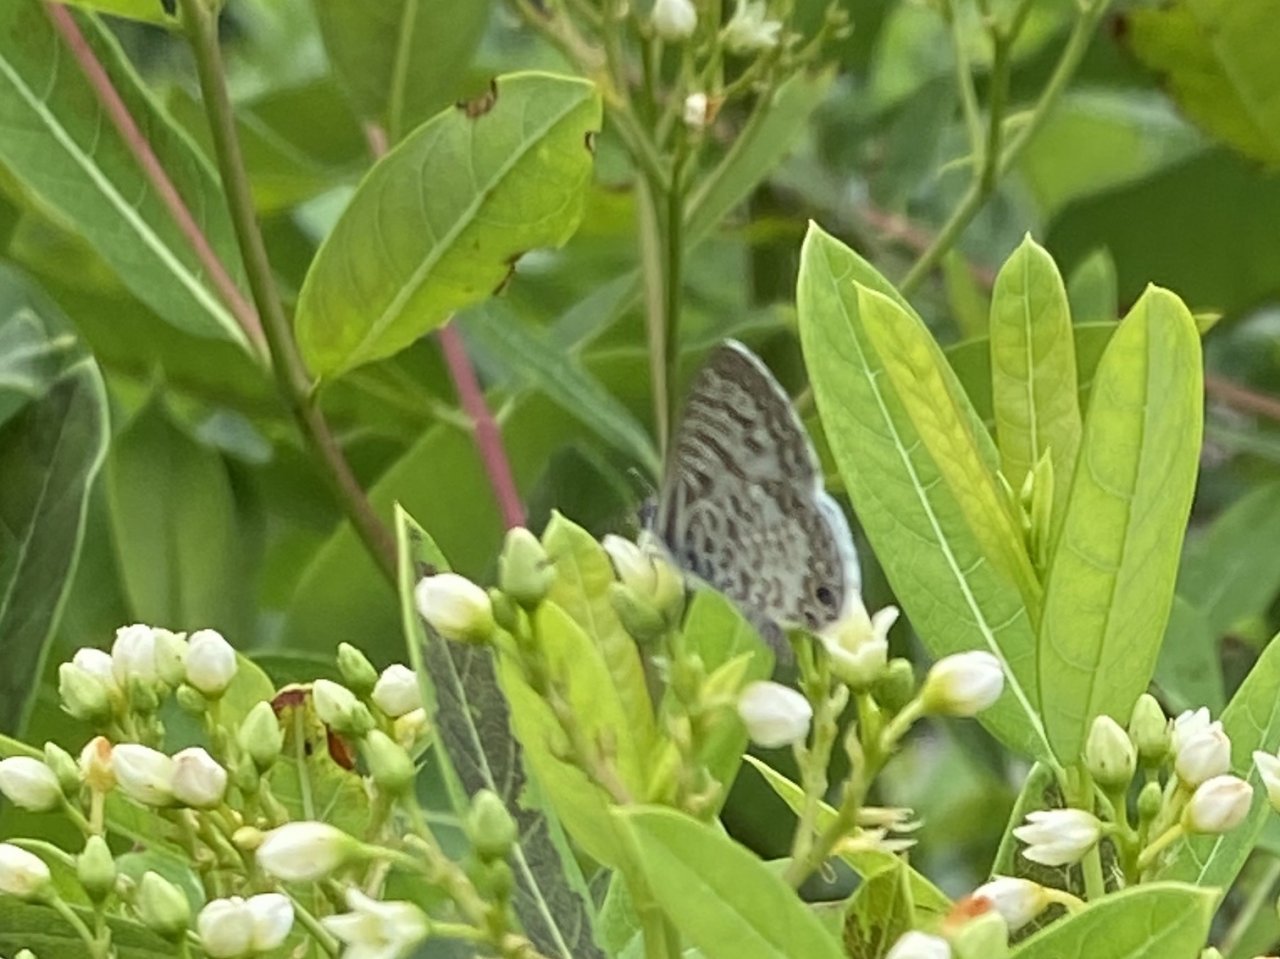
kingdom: Animalia
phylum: Arthropoda
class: Insecta
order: Lepidoptera
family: Lycaenidae
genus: Leptotes
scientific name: Leptotes cassius
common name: Cassius Blue
